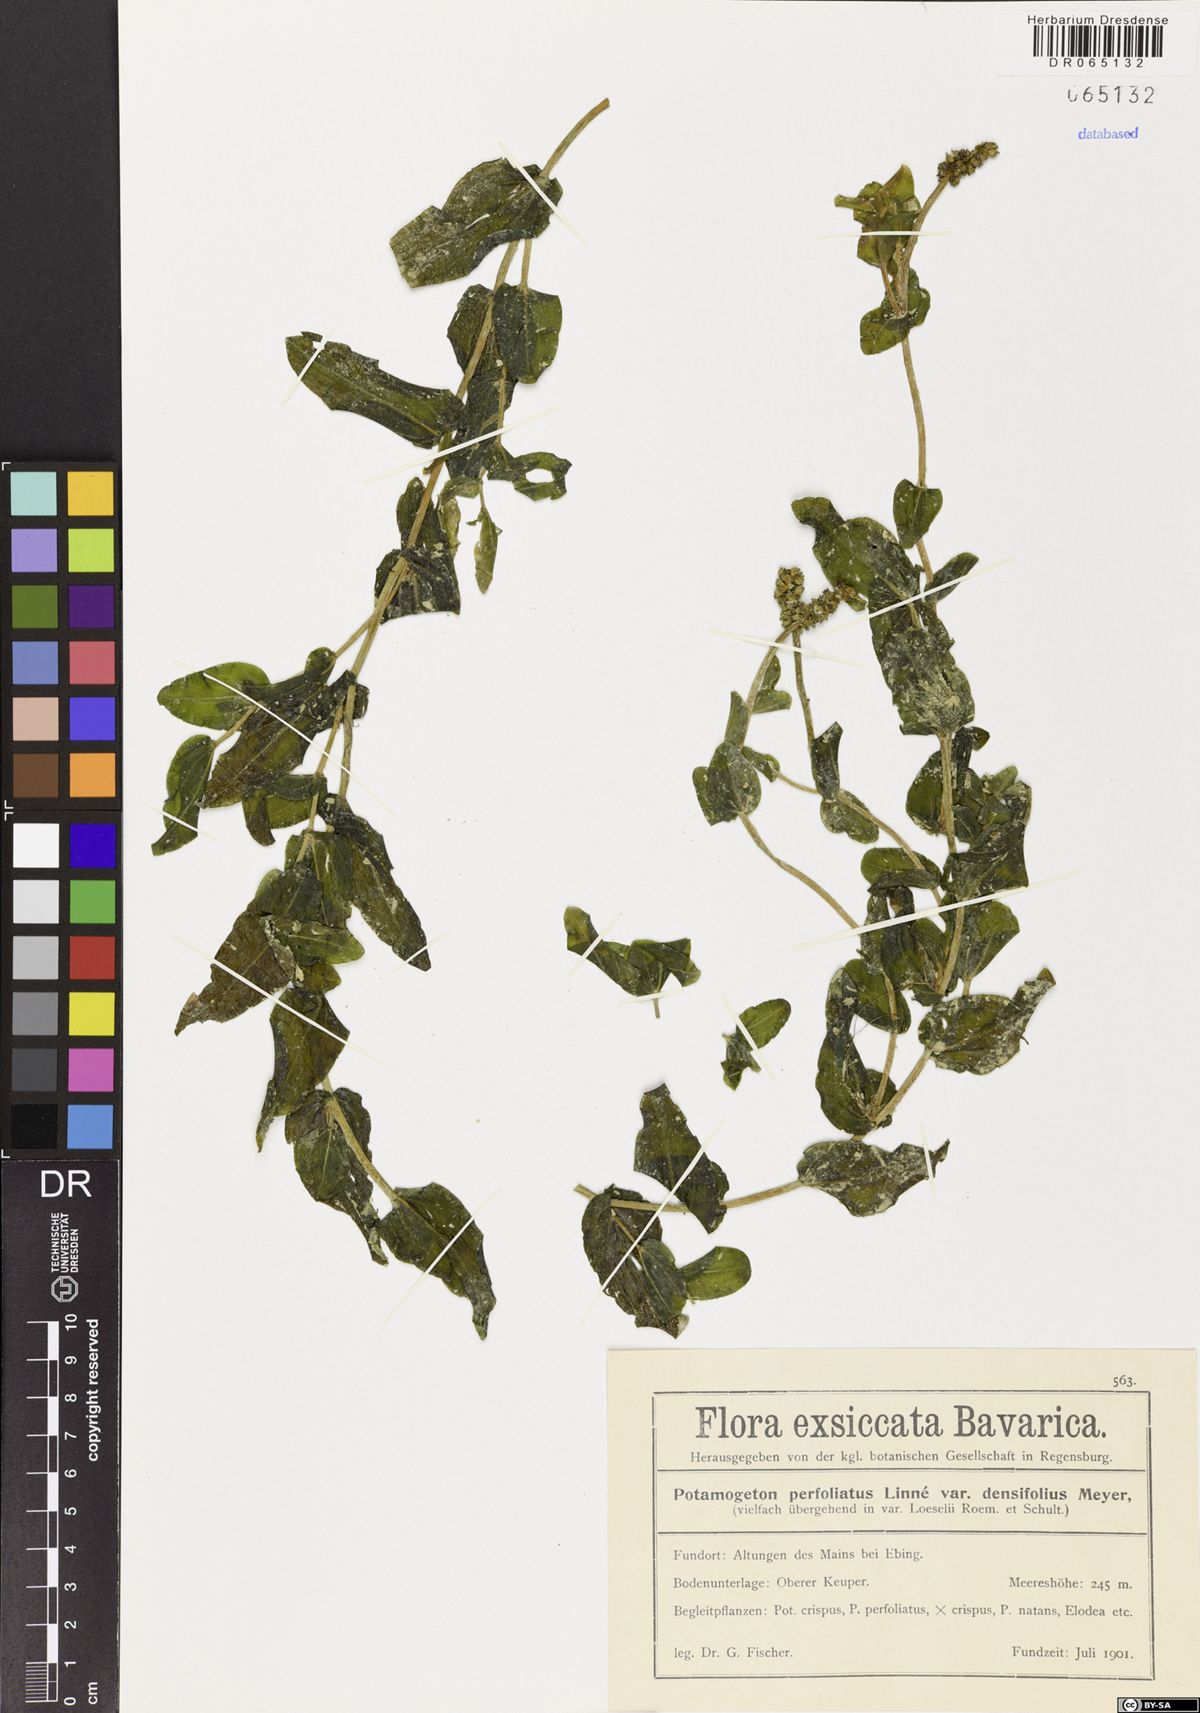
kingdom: Plantae
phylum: Tracheophyta
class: Liliopsida
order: Alismatales
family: Potamogetonaceae
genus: Potamogeton
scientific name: Potamogeton perfoliatus
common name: Perfoliate pondweed
